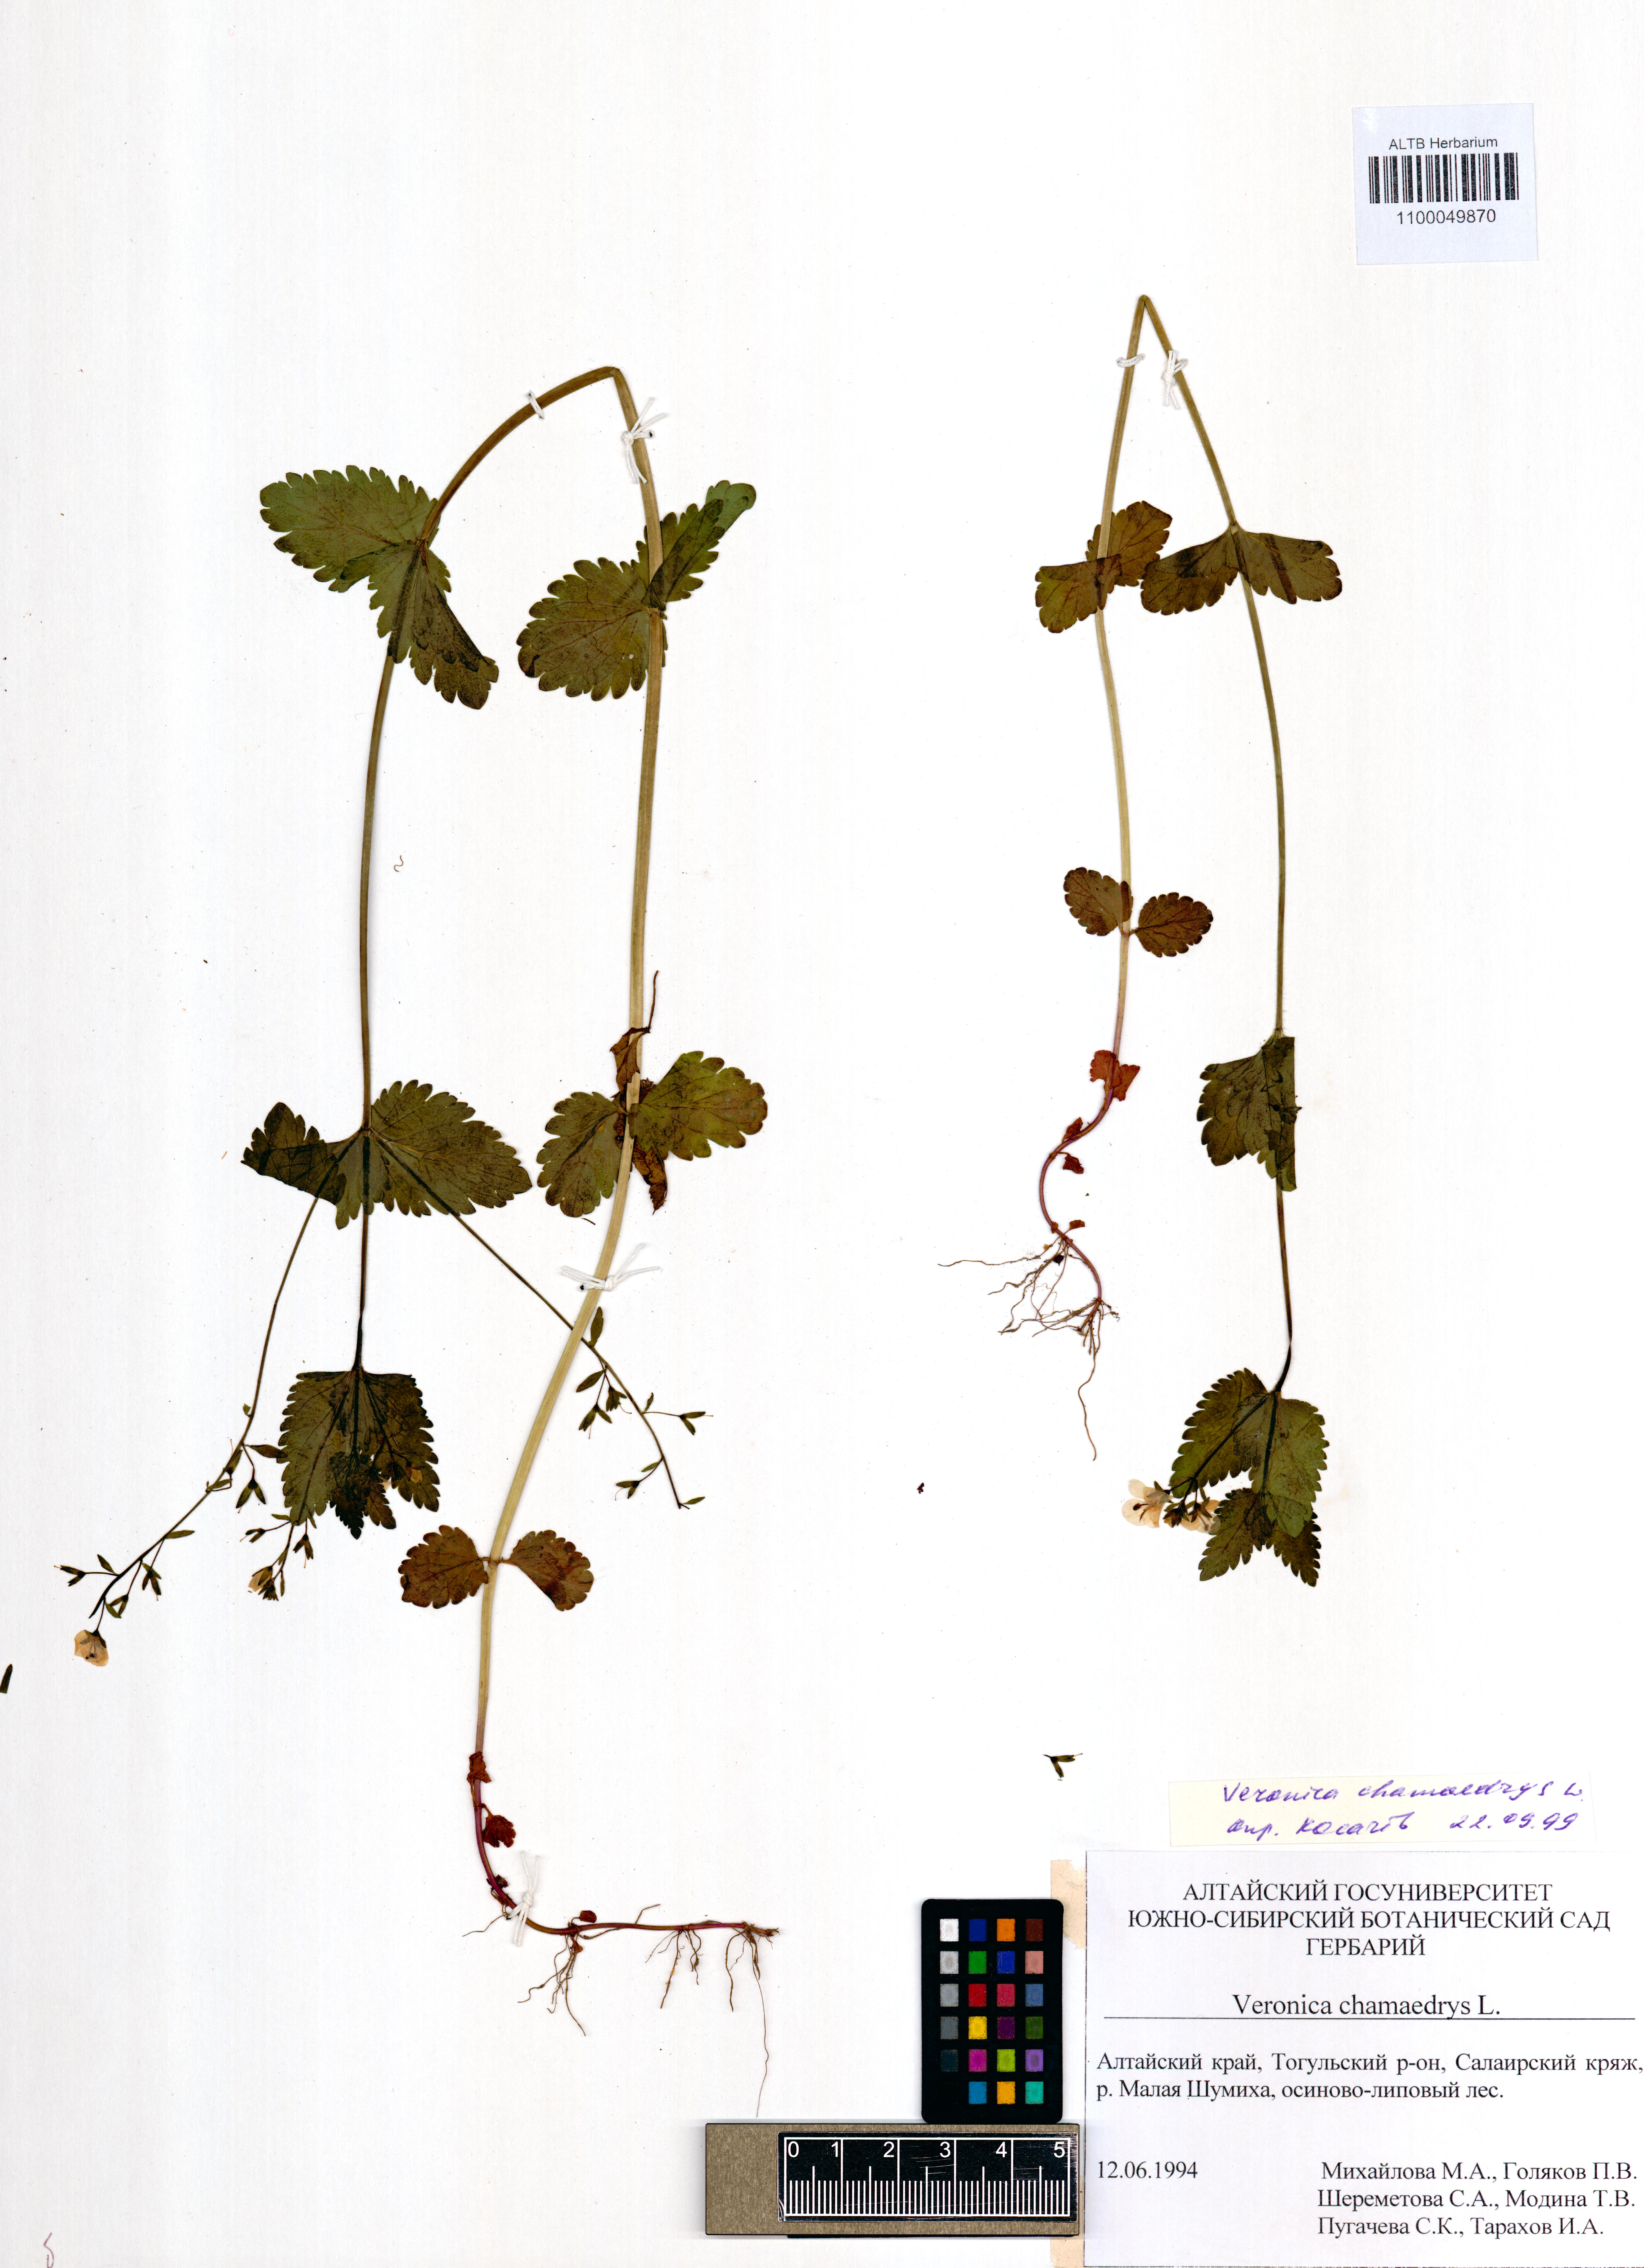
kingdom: Plantae
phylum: Tracheophyta
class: Magnoliopsida
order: Lamiales
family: Plantaginaceae
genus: Veronica
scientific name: Veronica chamaedrys
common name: Germander speedwell
